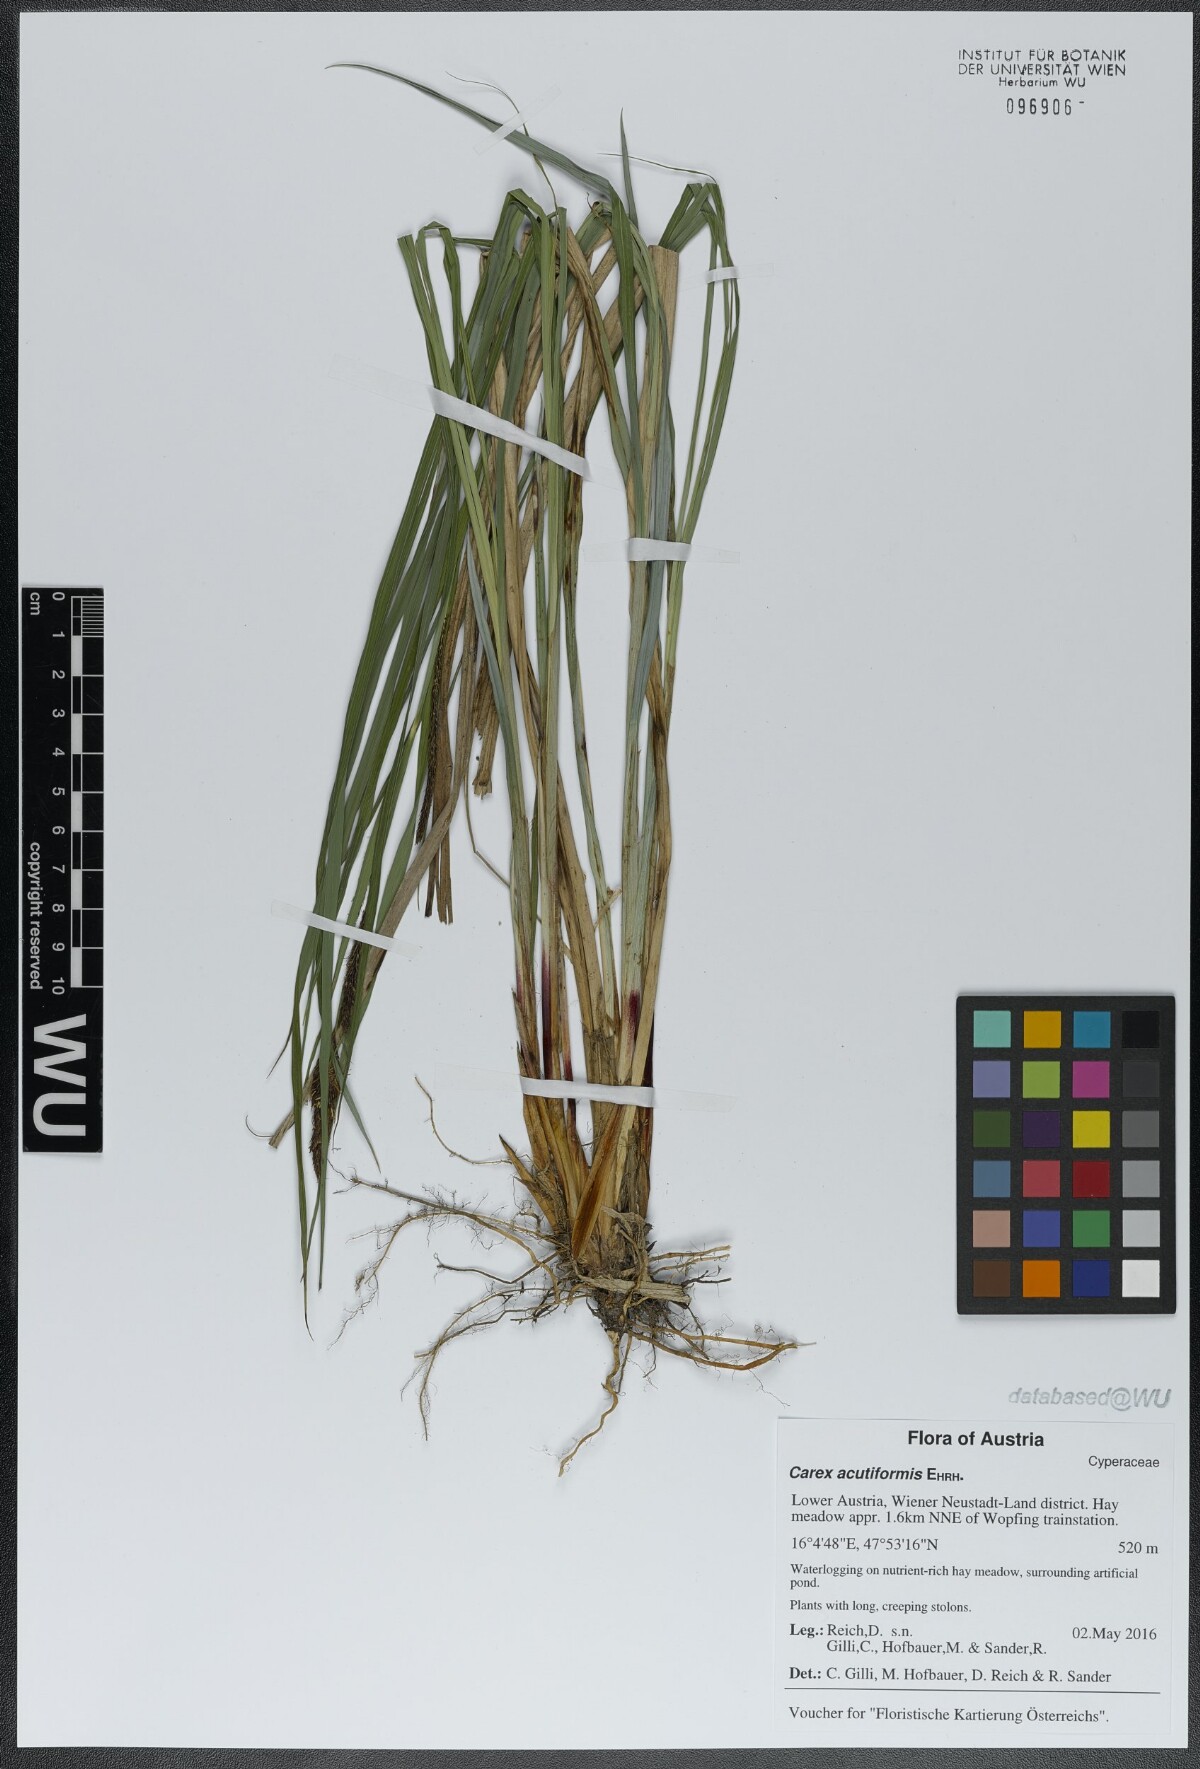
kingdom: Plantae
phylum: Tracheophyta
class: Liliopsida
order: Poales
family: Cyperaceae
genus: Carex
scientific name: Carex acutiformis
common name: Lesser pond-sedge
